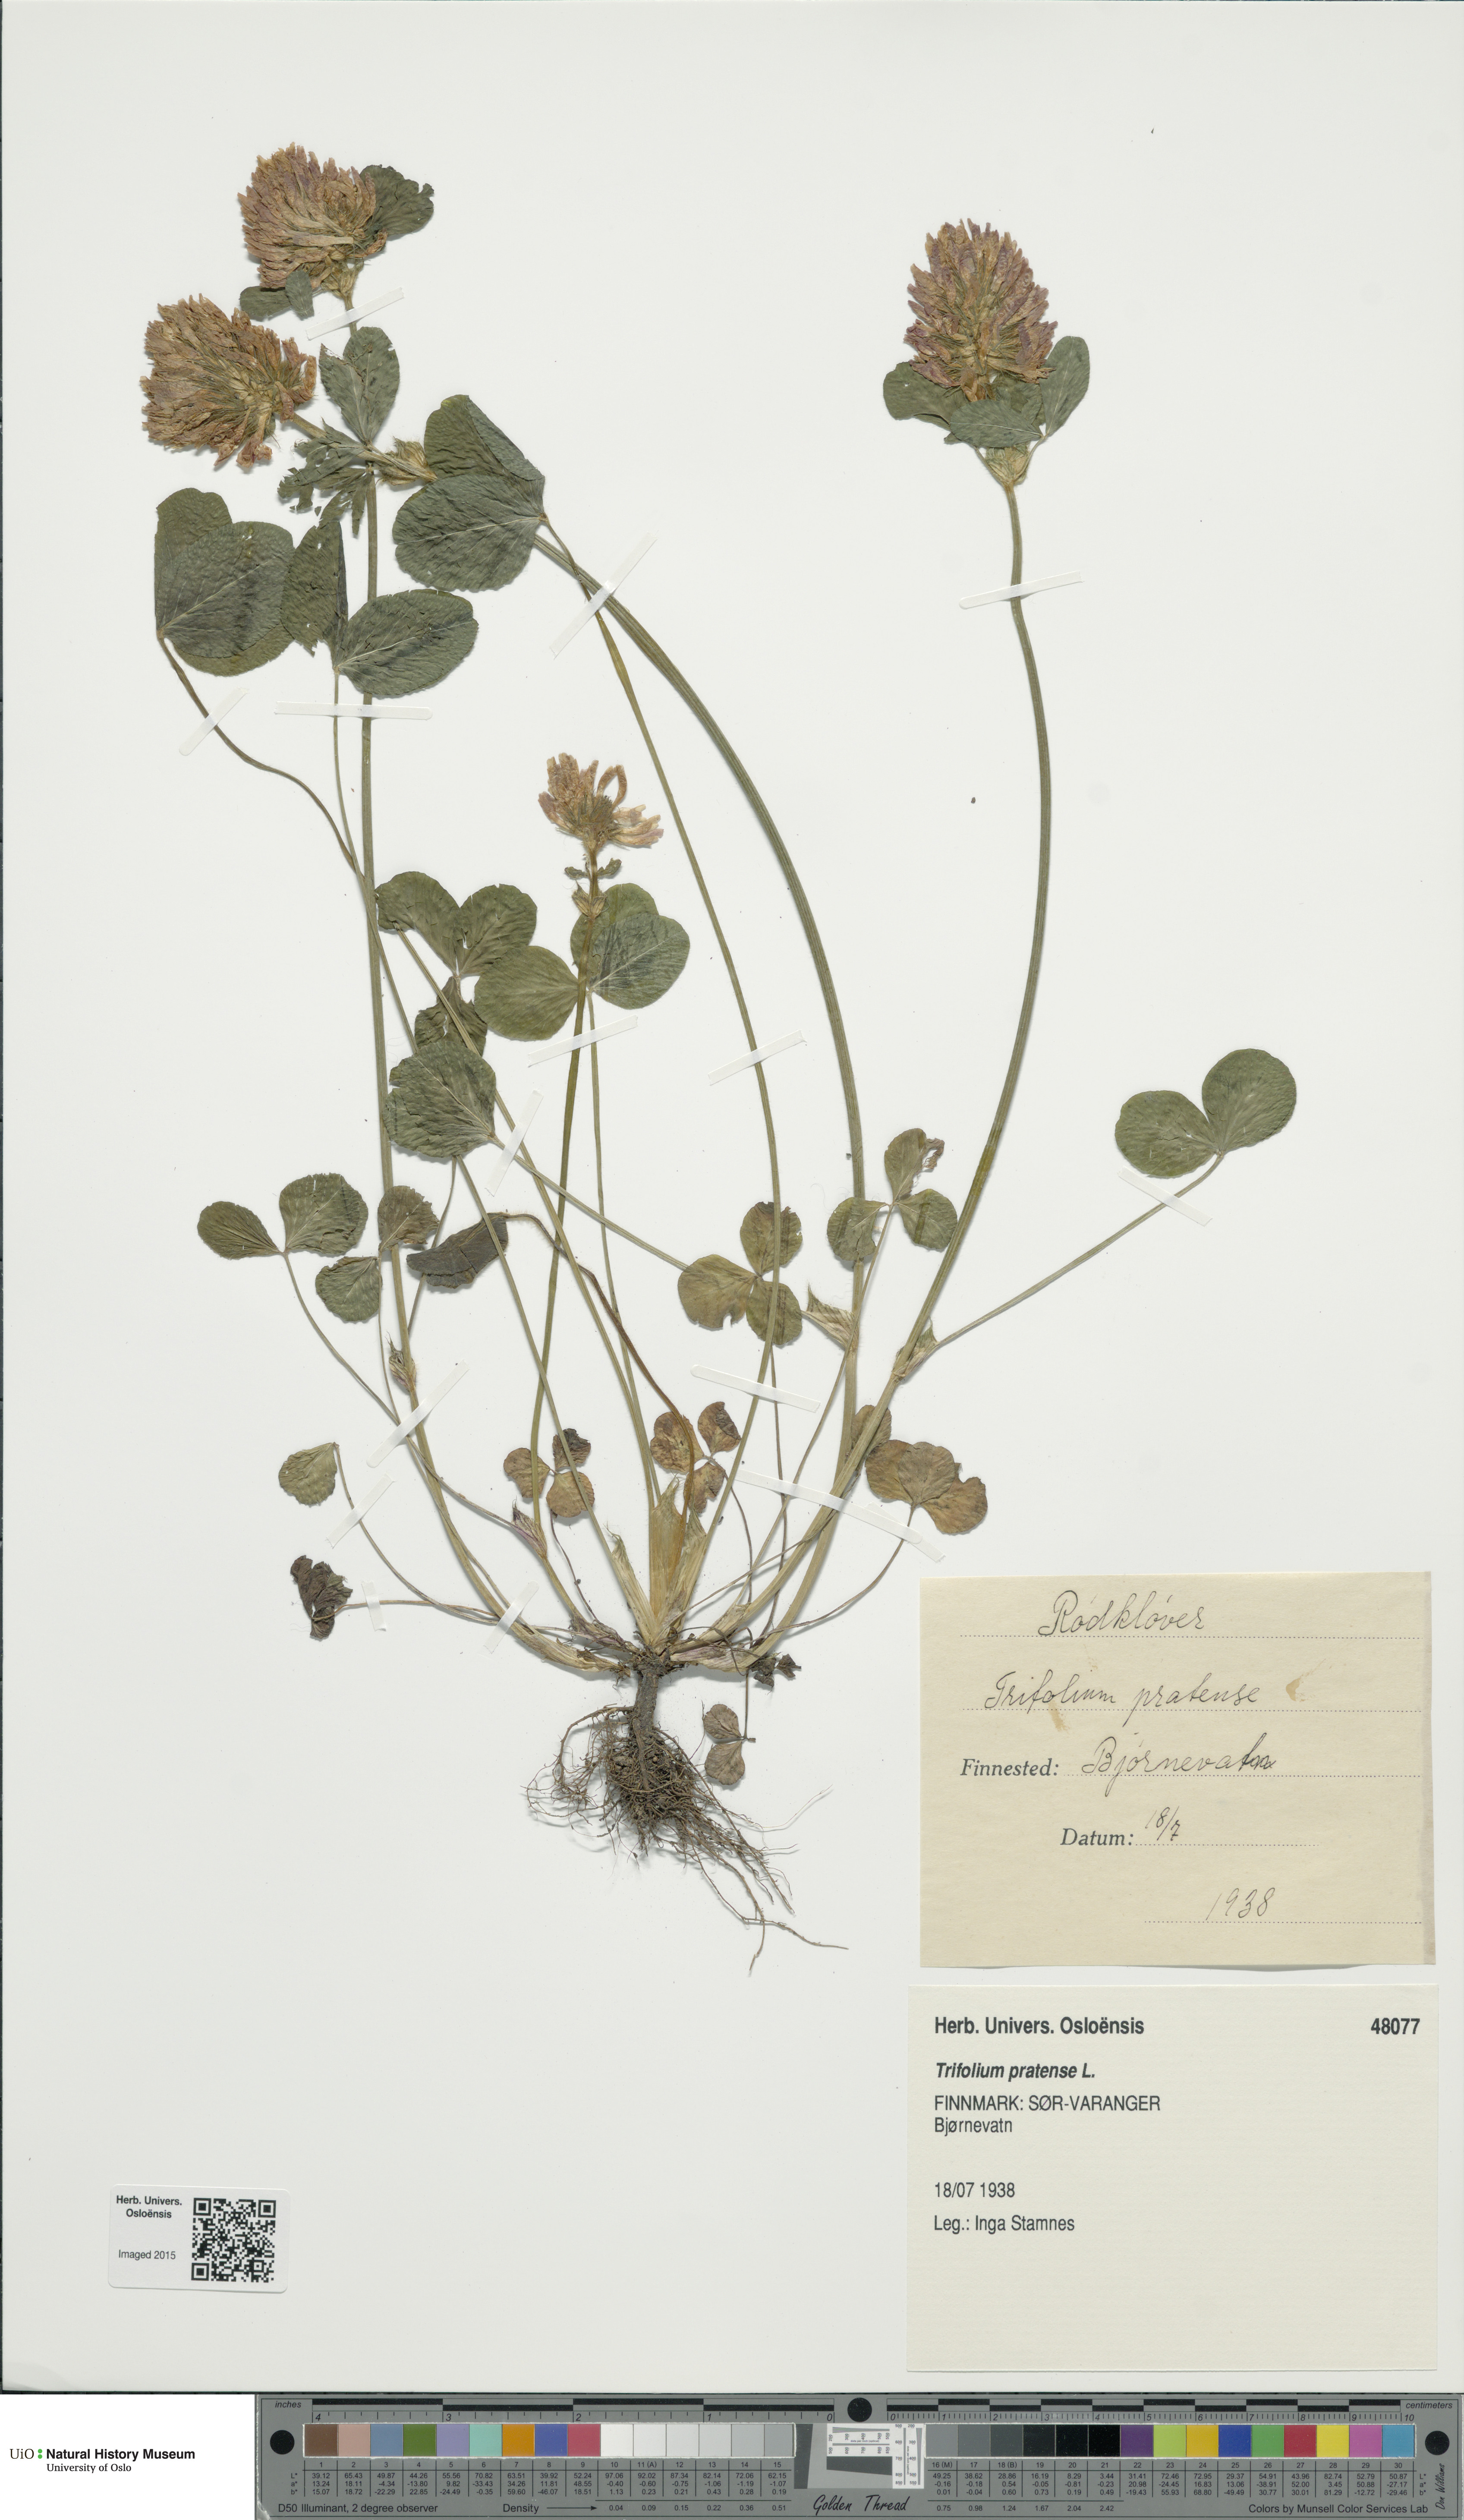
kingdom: Plantae
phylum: Tracheophyta
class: Magnoliopsida
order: Fabales
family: Fabaceae
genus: Trifolium
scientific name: Trifolium pratense
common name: Red clover
